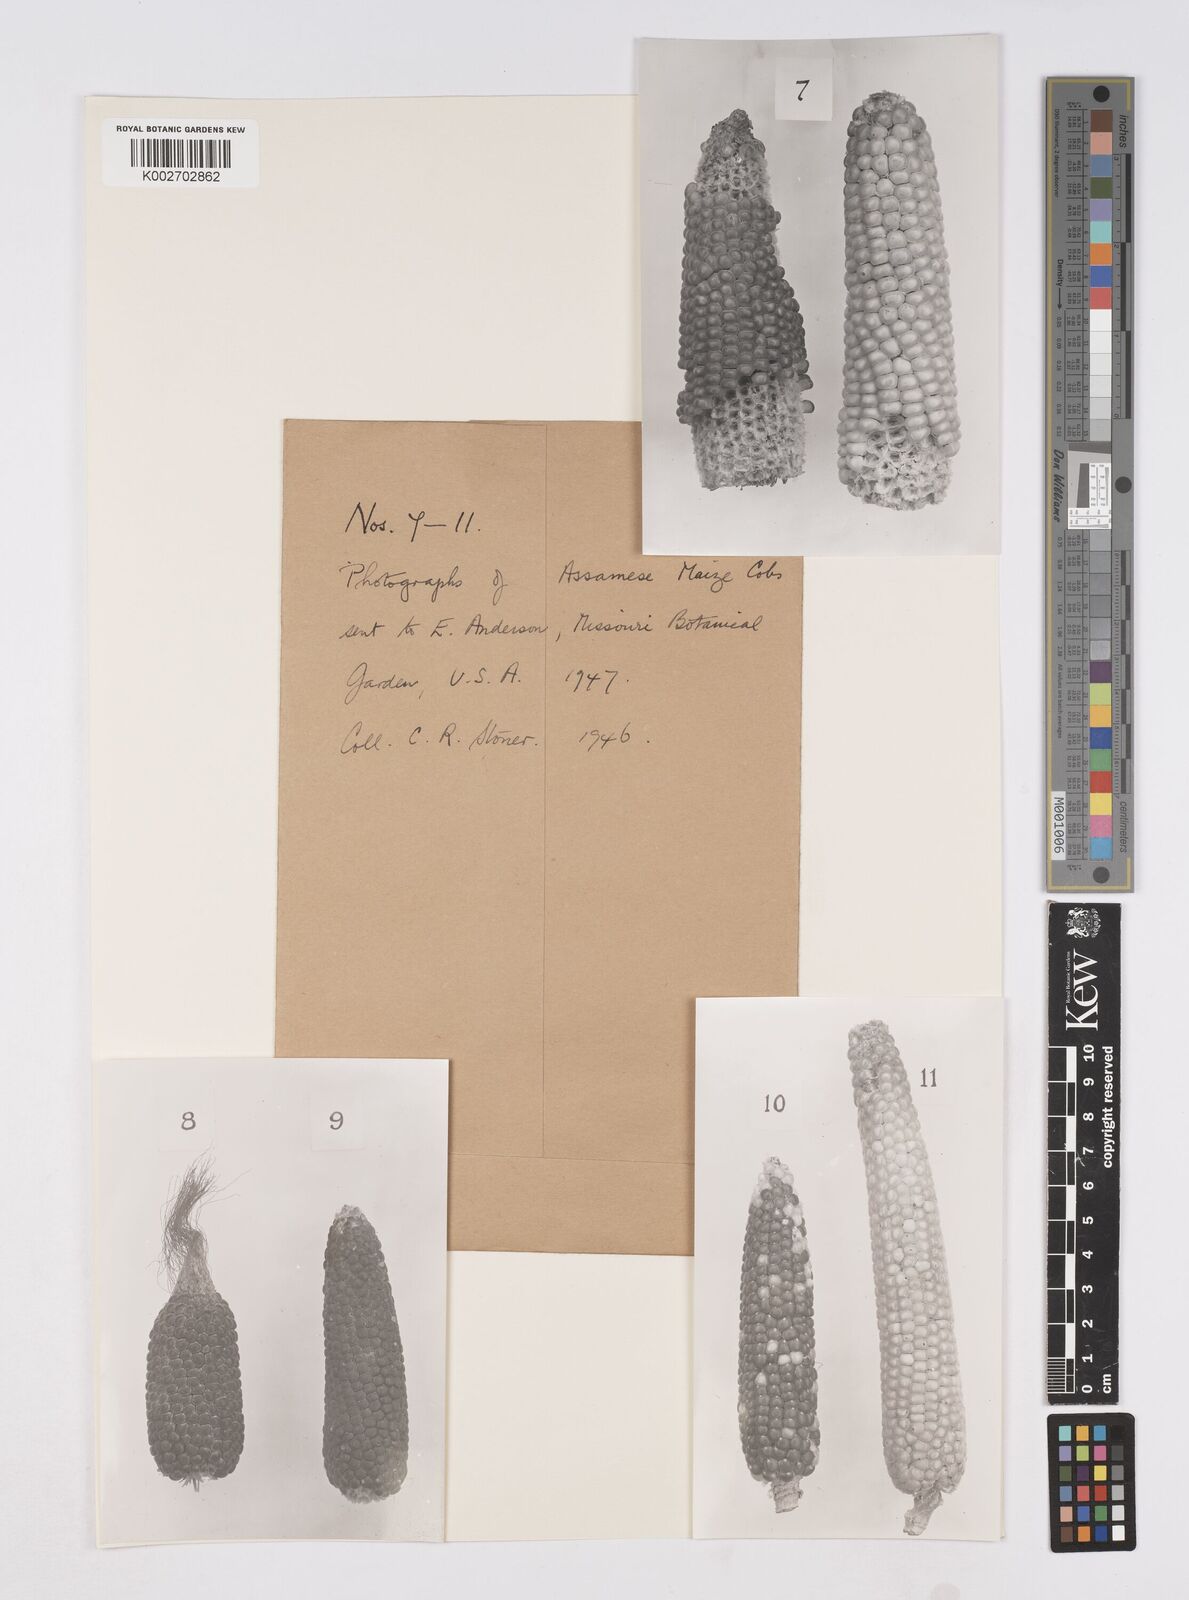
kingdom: Plantae
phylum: Tracheophyta
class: Liliopsida
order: Poales
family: Poaceae
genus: Zea
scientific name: Zea mays
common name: Maize
